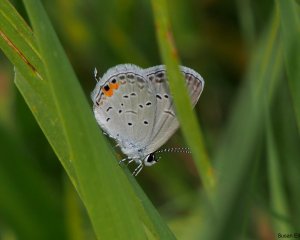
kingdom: Animalia
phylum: Arthropoda
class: Insecta
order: Lepidoptera
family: Lycaenidae
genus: Elkalyce
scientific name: Elkalyce comyntas
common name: Eastern Tailed-Blue
